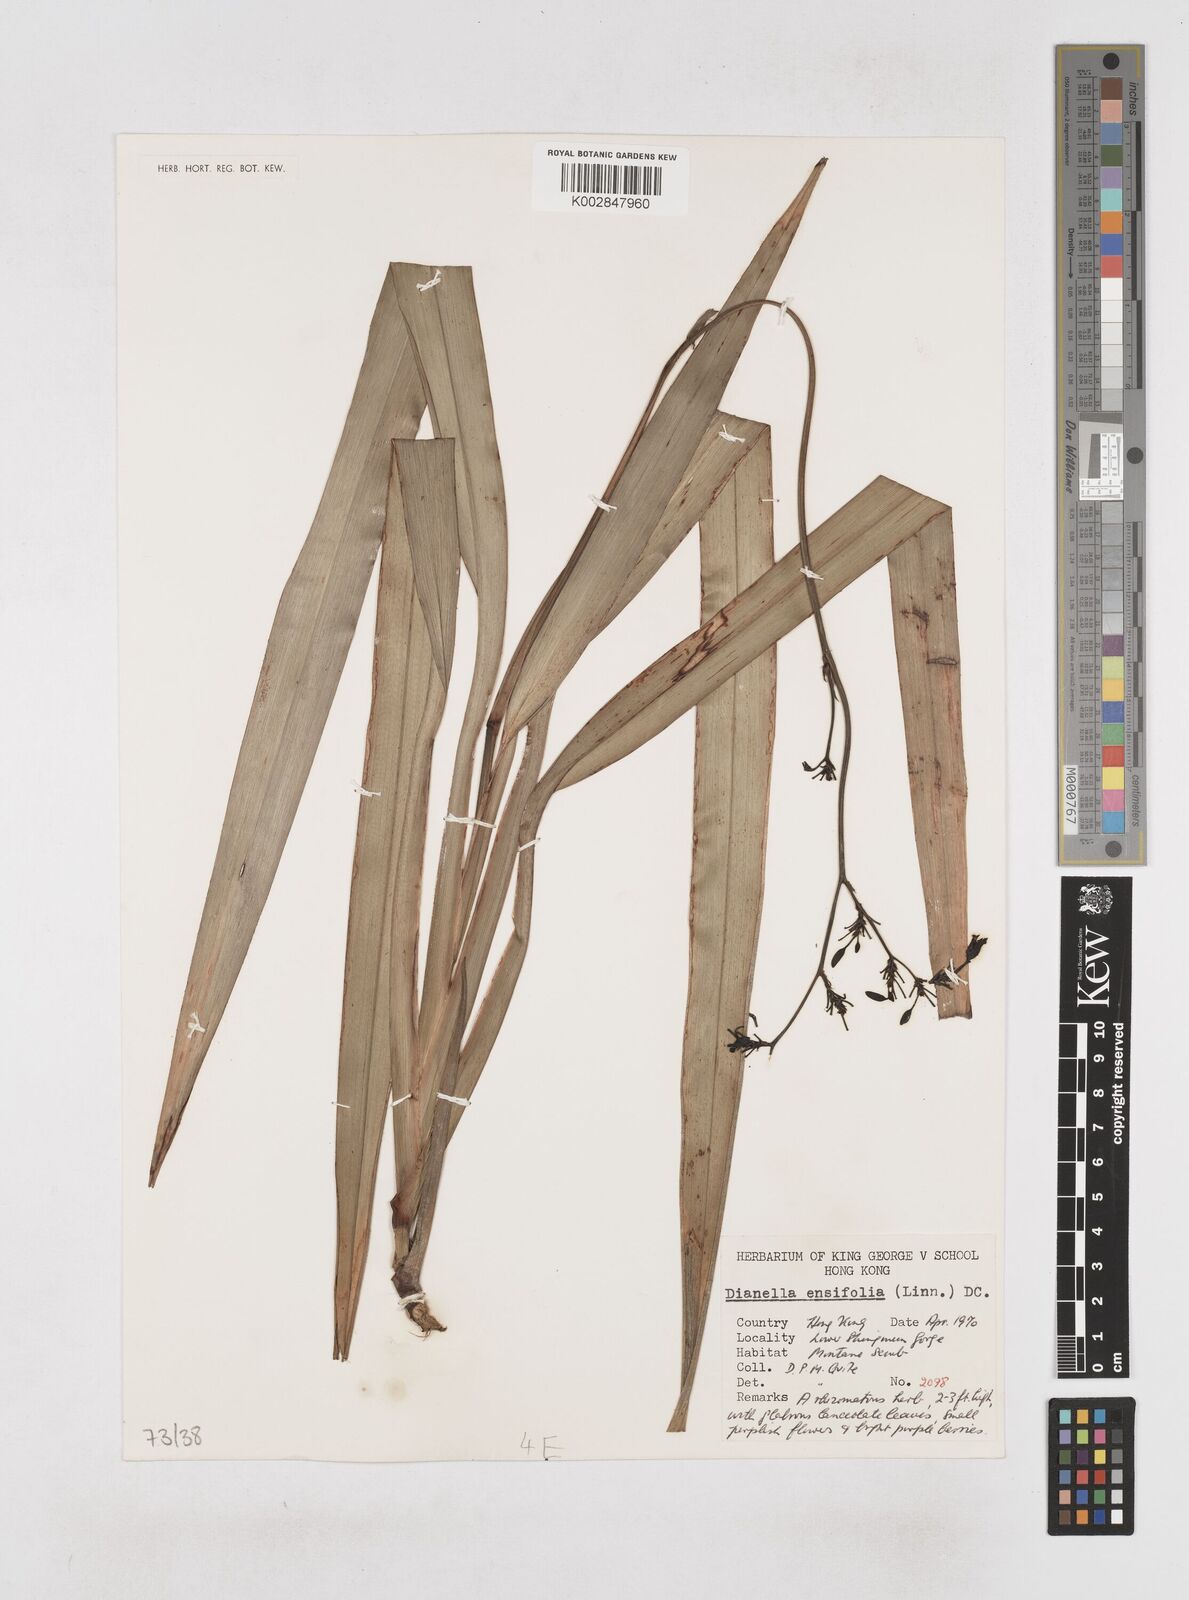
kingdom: Plantae
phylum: Tracheophyta
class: Liliopsida
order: Asparagales
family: Asphodelaceae
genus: Dianella
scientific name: Dianella ensifolia
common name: New zealand lilyplant
